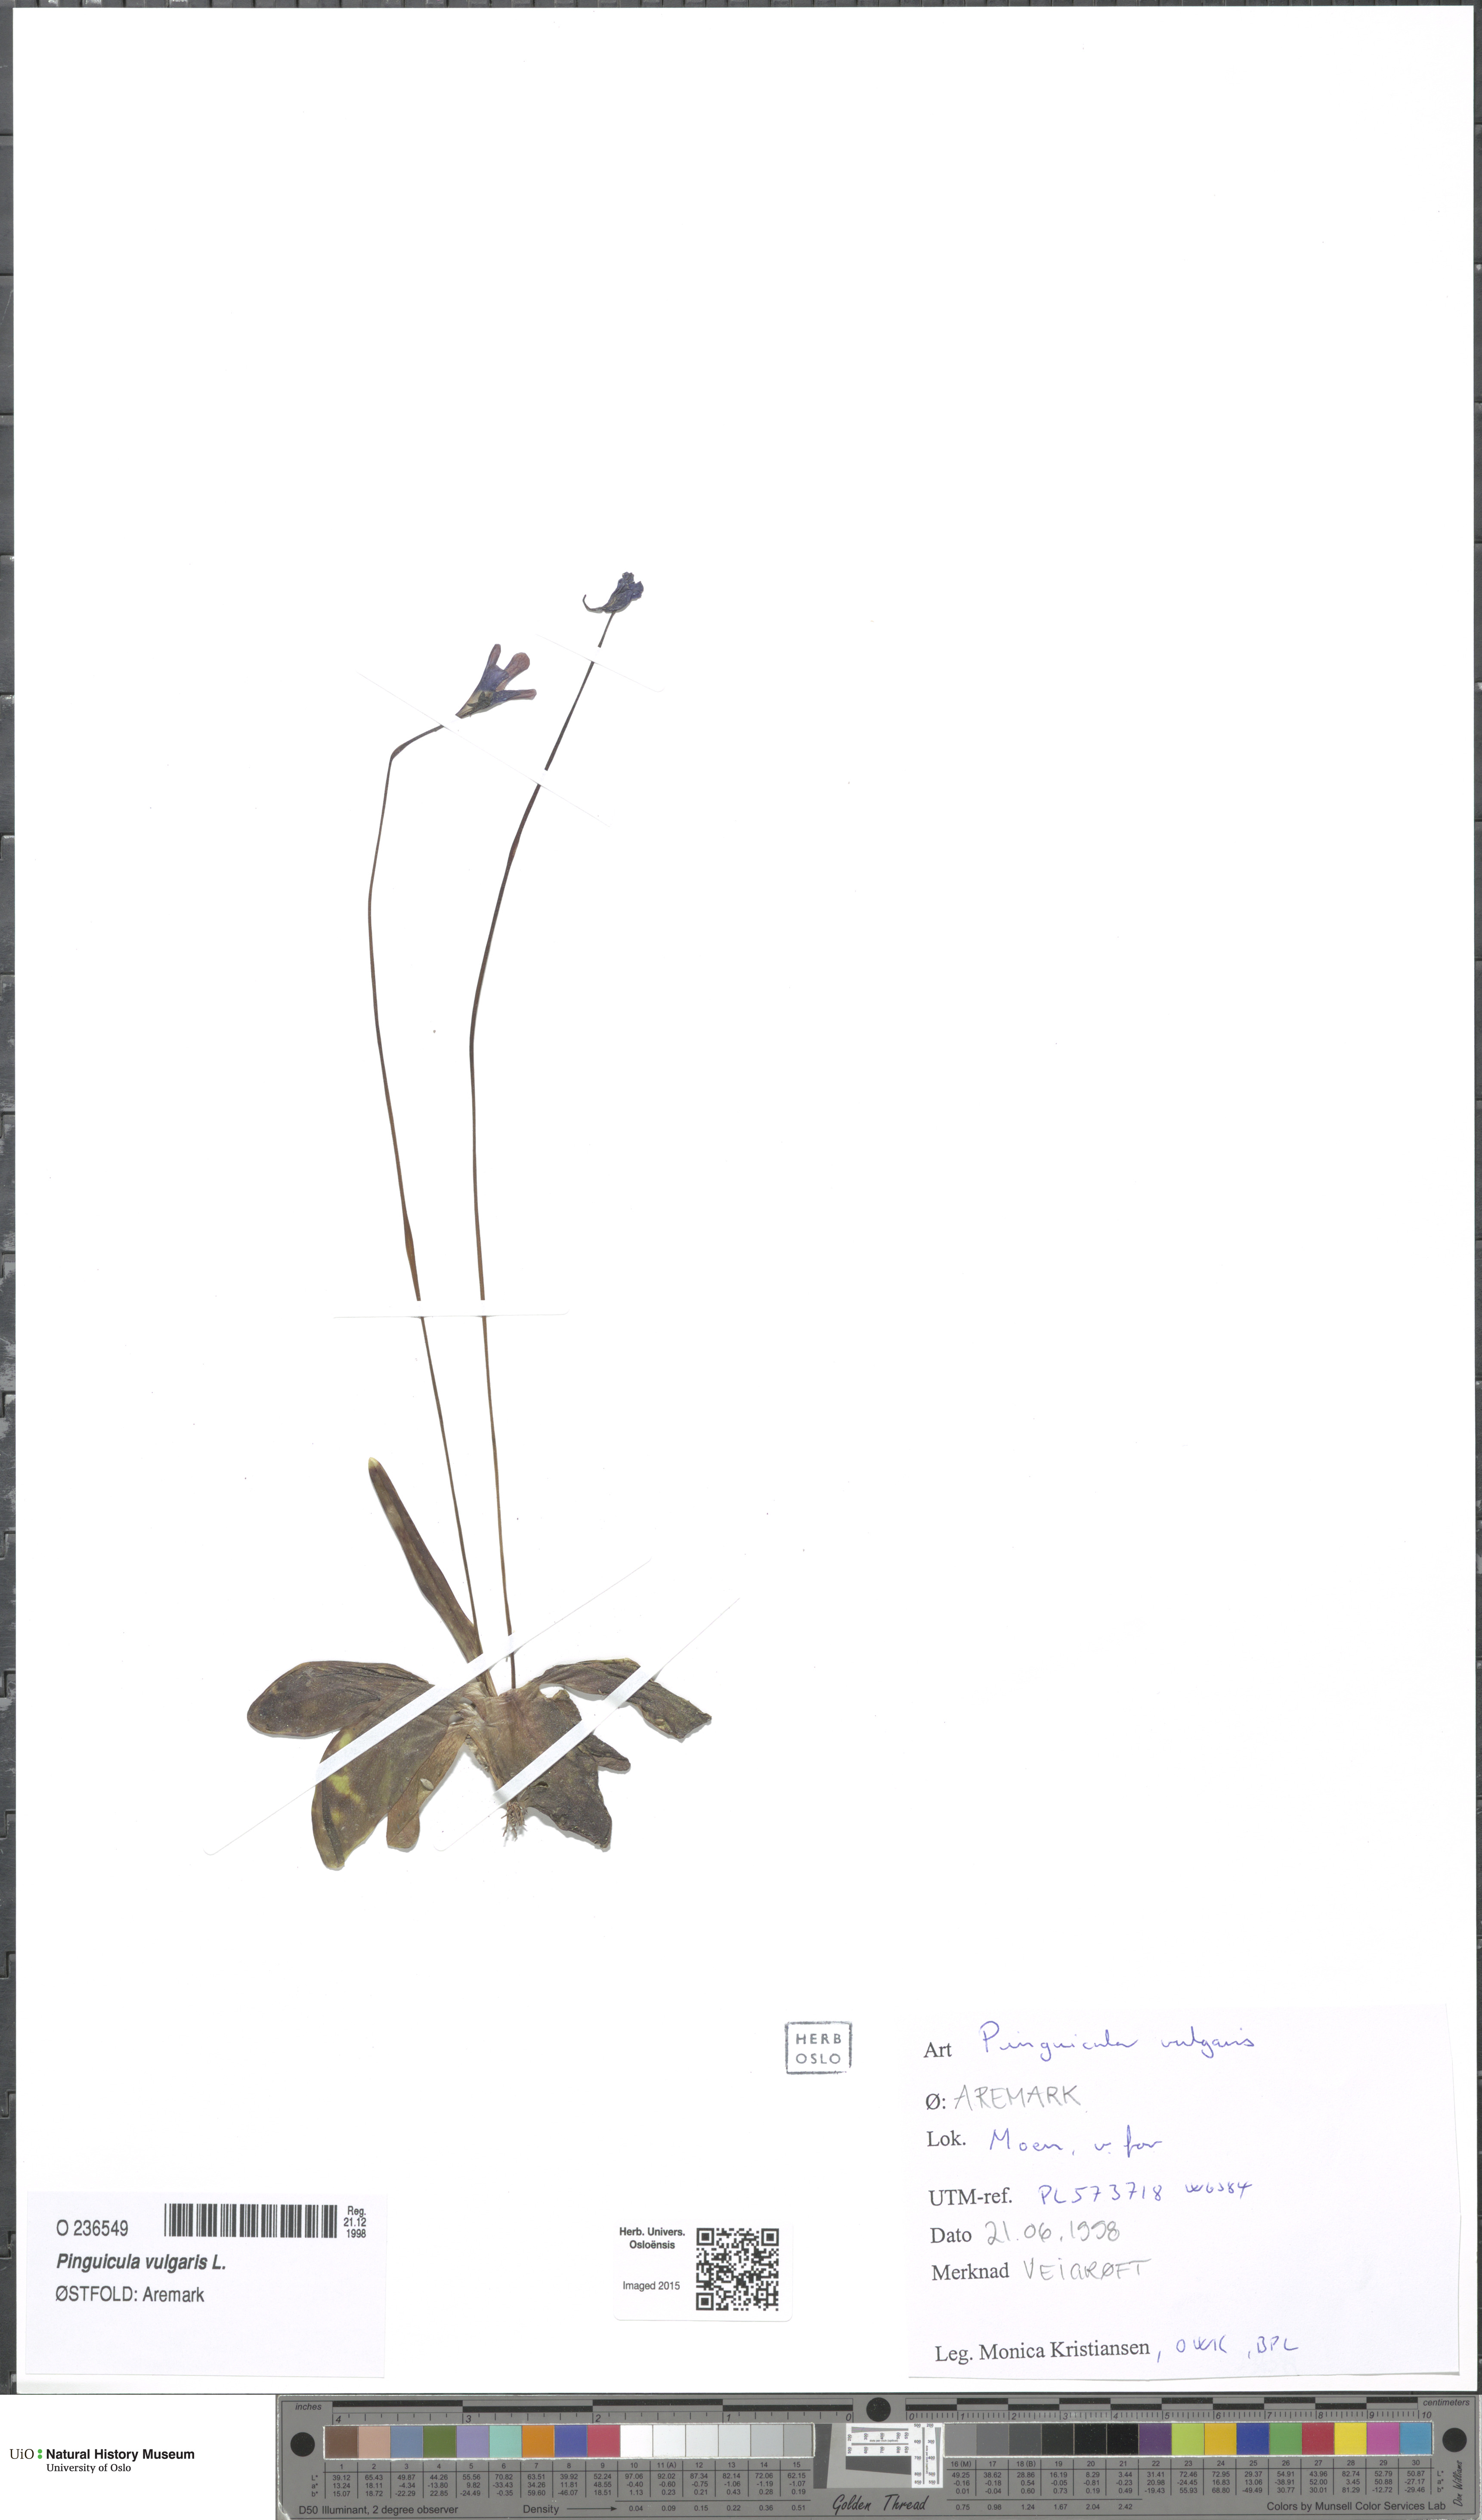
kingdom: Plantae
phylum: Tracheophyta
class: Magnoliopsida
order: Lamiales
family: Lentibulariaceae
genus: Pinguicula
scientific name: Pinguicula vulgaris
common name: Common butterwort
